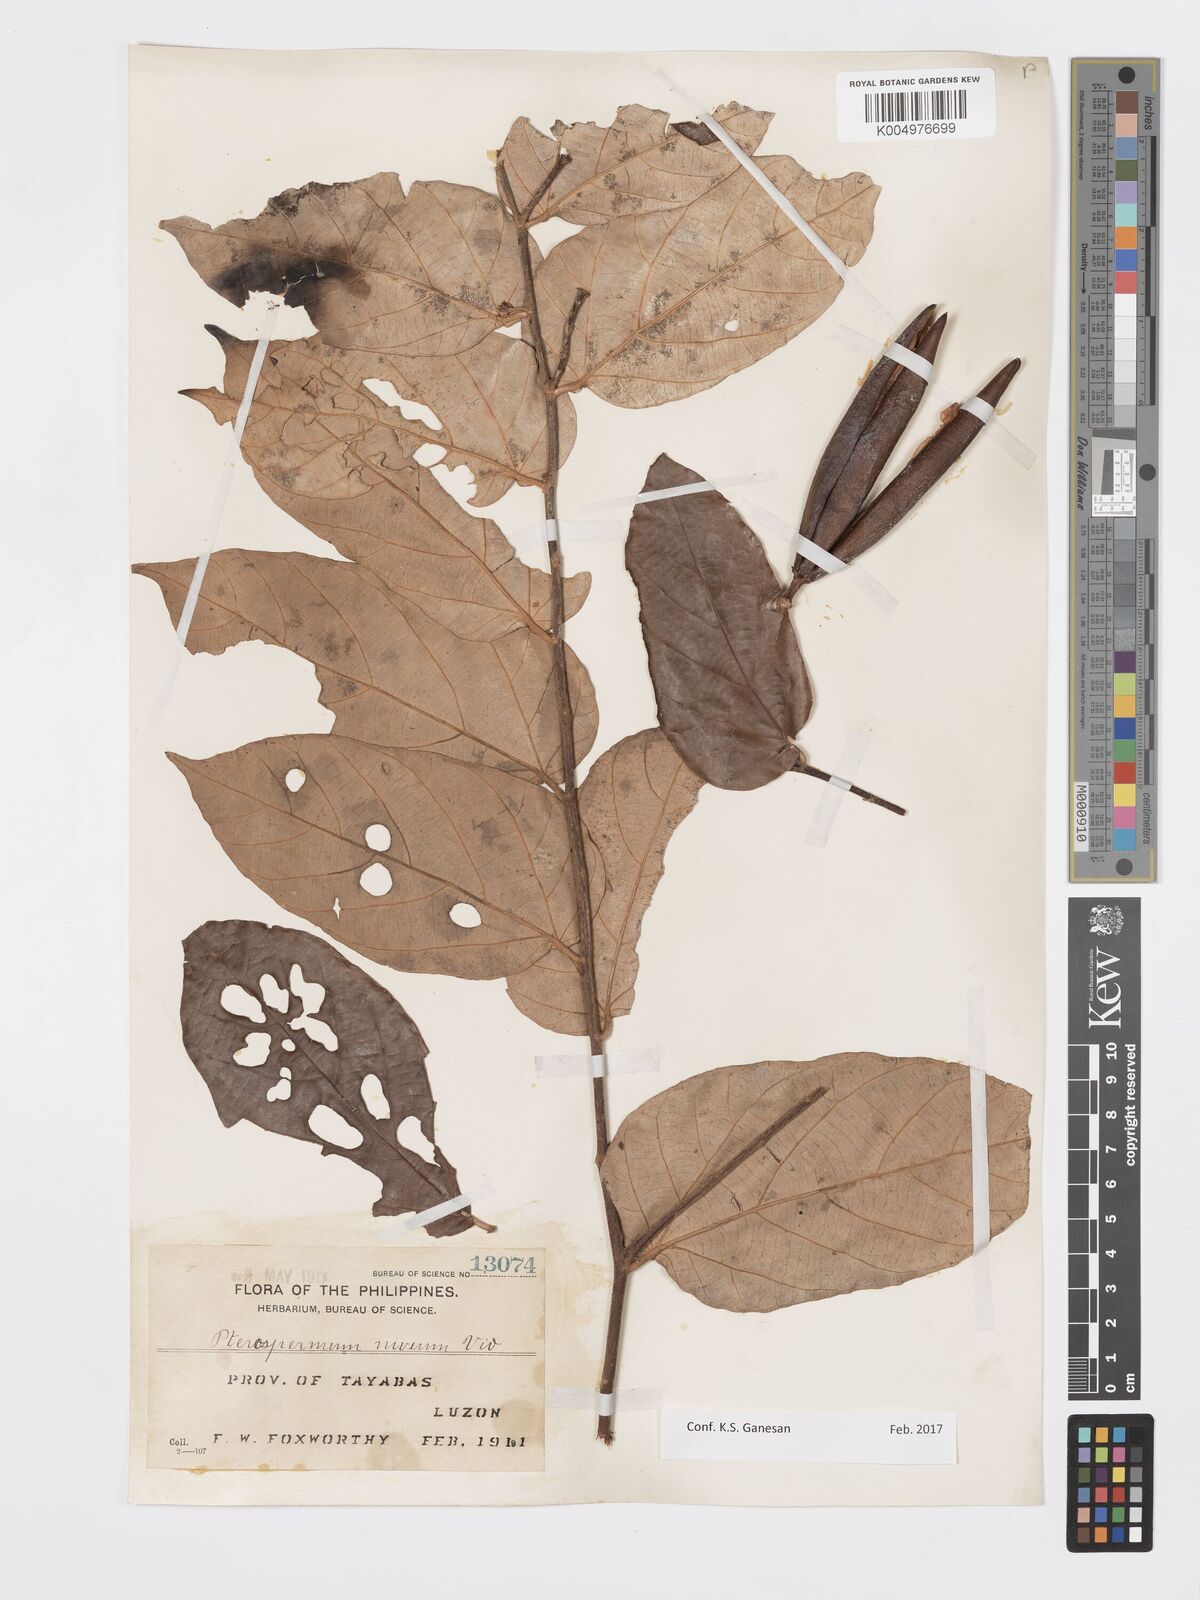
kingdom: Plantae
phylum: Tracheophyta
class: Magnoliopsida
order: Malvales
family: Malvaceae
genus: Pterospermum
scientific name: Pterospermum niveum
